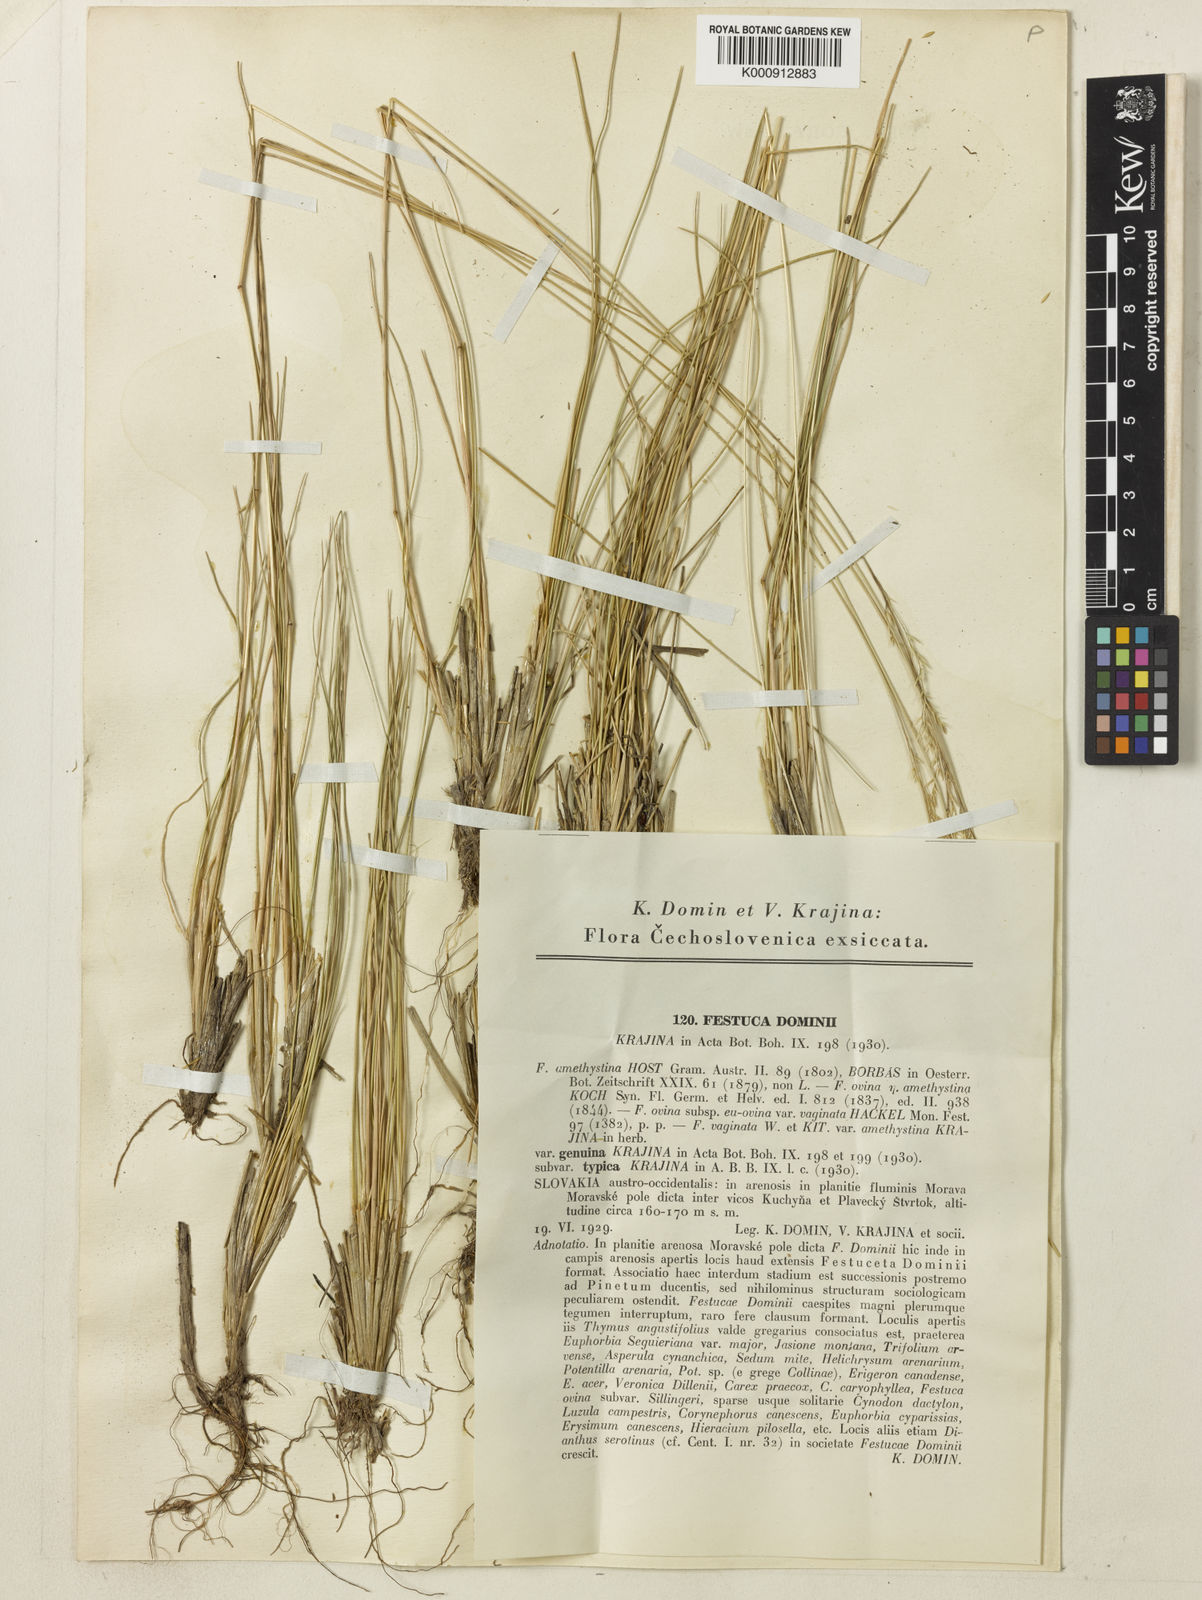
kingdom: Plantae
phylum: Tracheophyta
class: Liliopsida
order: Poales
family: Poaceae
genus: Festuca
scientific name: Festuca versicolor
